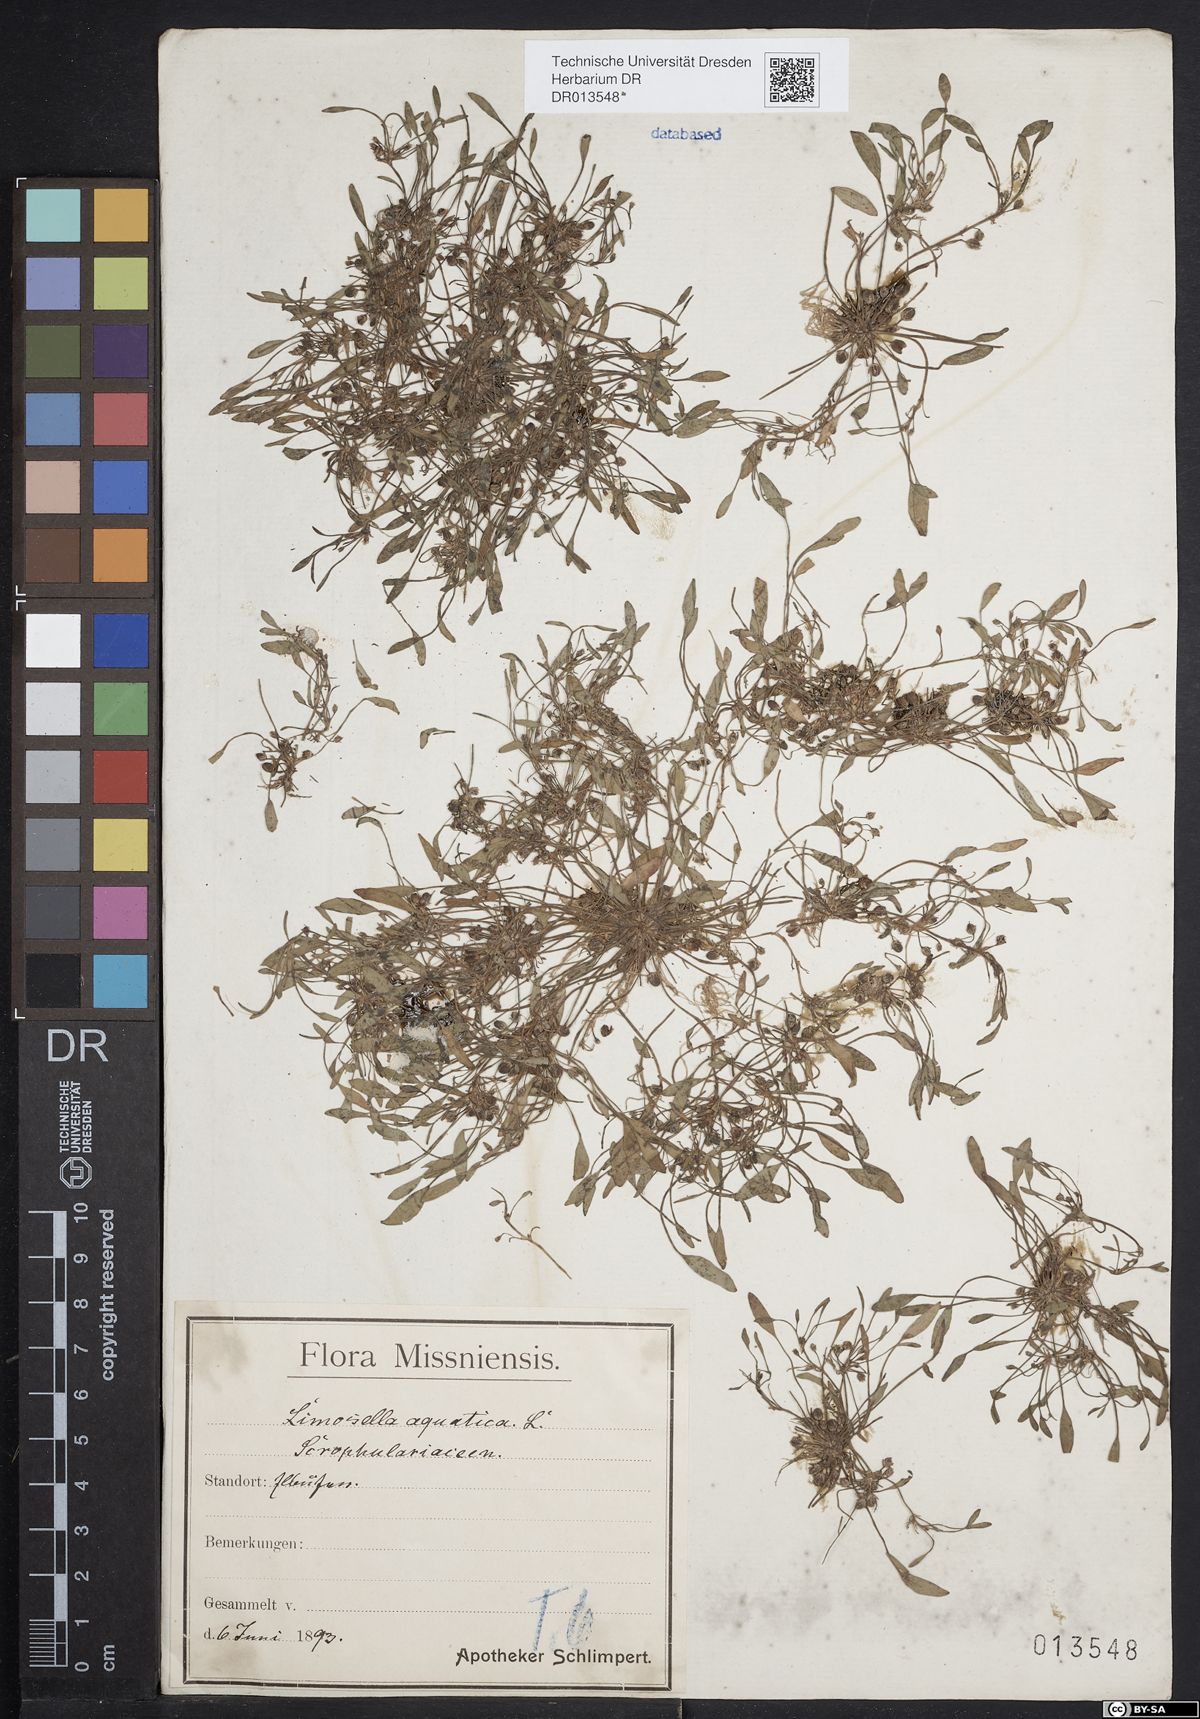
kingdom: Plantae
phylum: Tracheophyta
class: Magnoliopsida
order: Lamiales
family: Scrophulariaceae
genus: Limosella
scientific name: Limosella aquatica
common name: Mudwort
